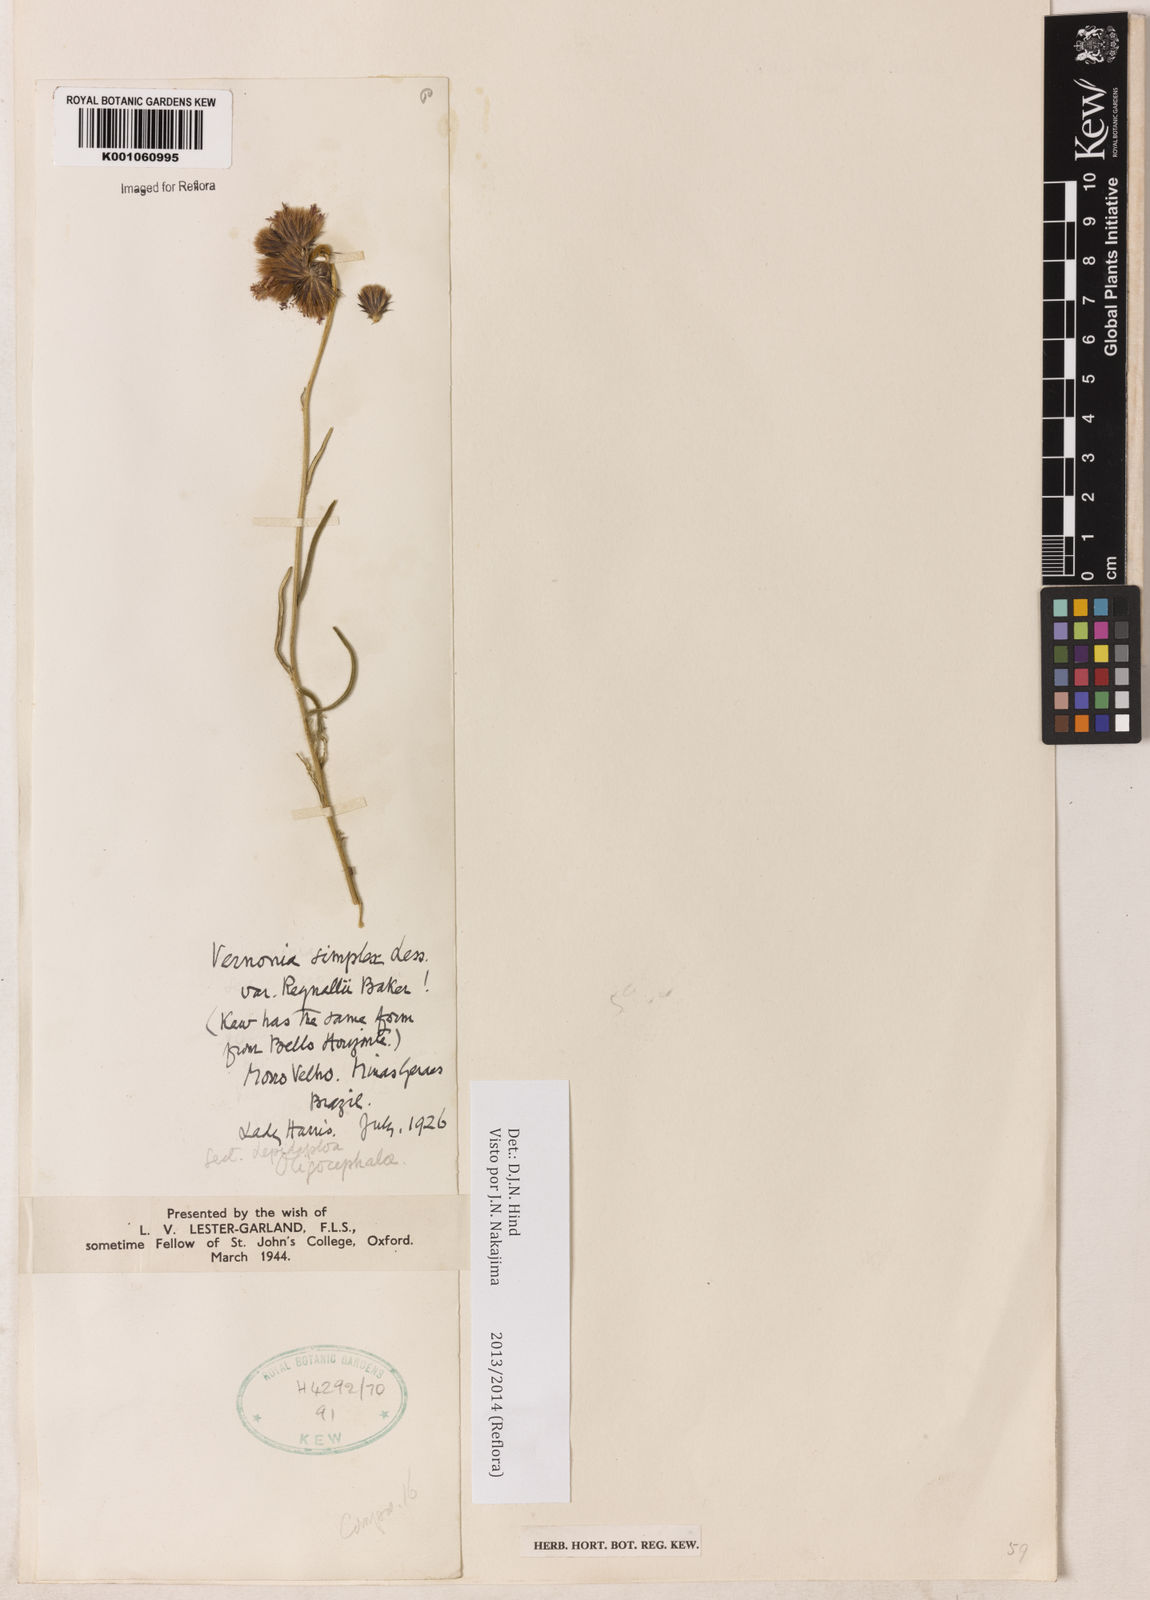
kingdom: Plantae
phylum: Tracheophyta
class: Magnoliopsida
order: Asterales
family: Asteraceae
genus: Chrysolaena
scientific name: Chrysolaena simplex
